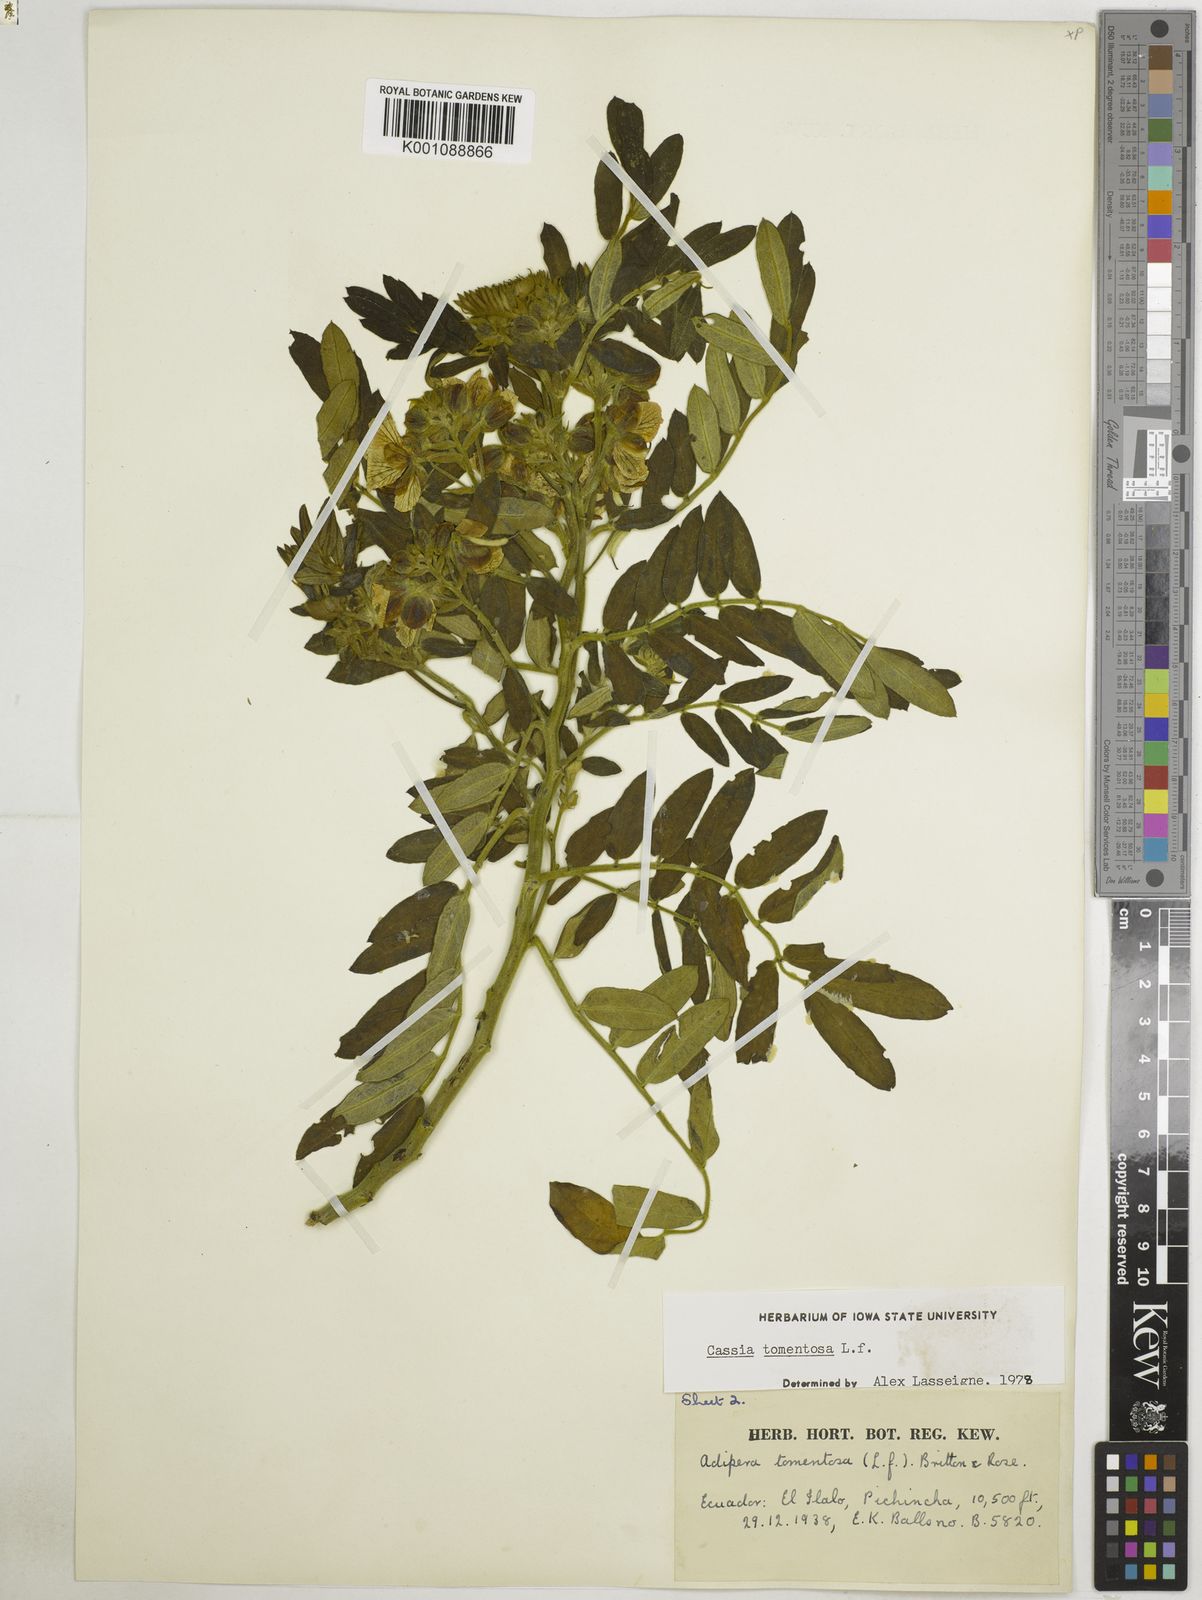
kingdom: Plantae
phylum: Tracheophyta
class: Magnoliopsida
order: Fabales
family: Fabaceae
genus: Senna
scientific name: Senna multiglandulosa
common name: Glandular senna
